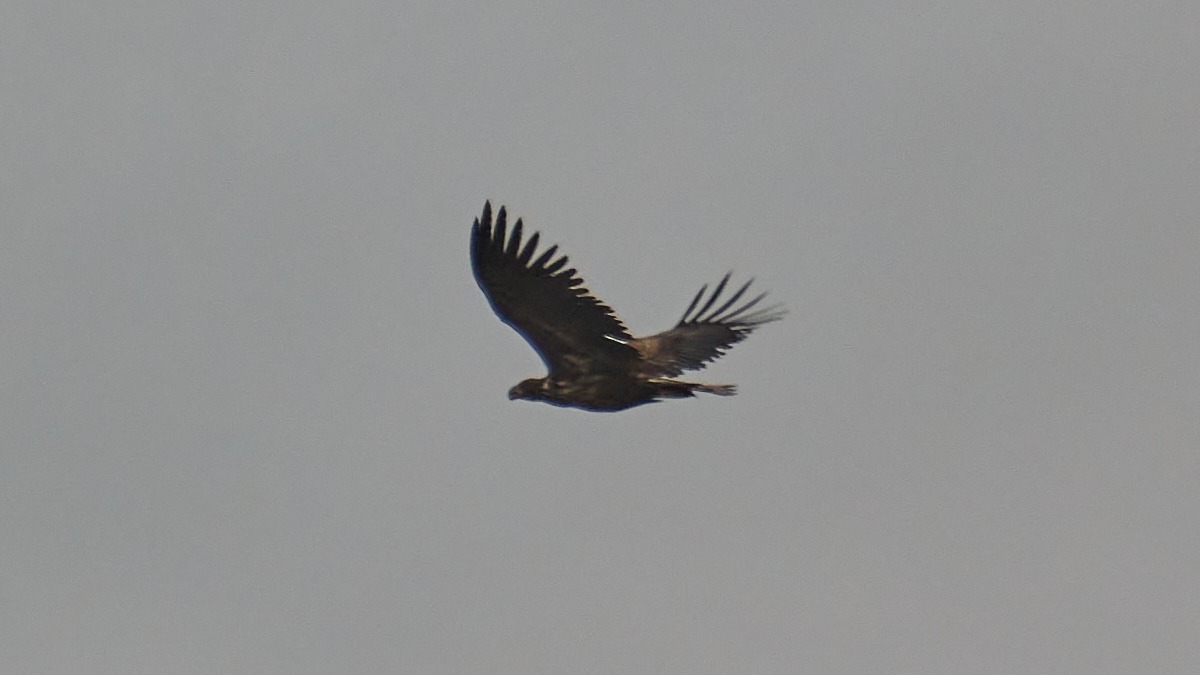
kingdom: Animalia
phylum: Chordata
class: Aves
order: Accipitriformes
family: Accipitridae
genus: Haliaeetus
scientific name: Haliaeetus albicilla
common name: Havørn
